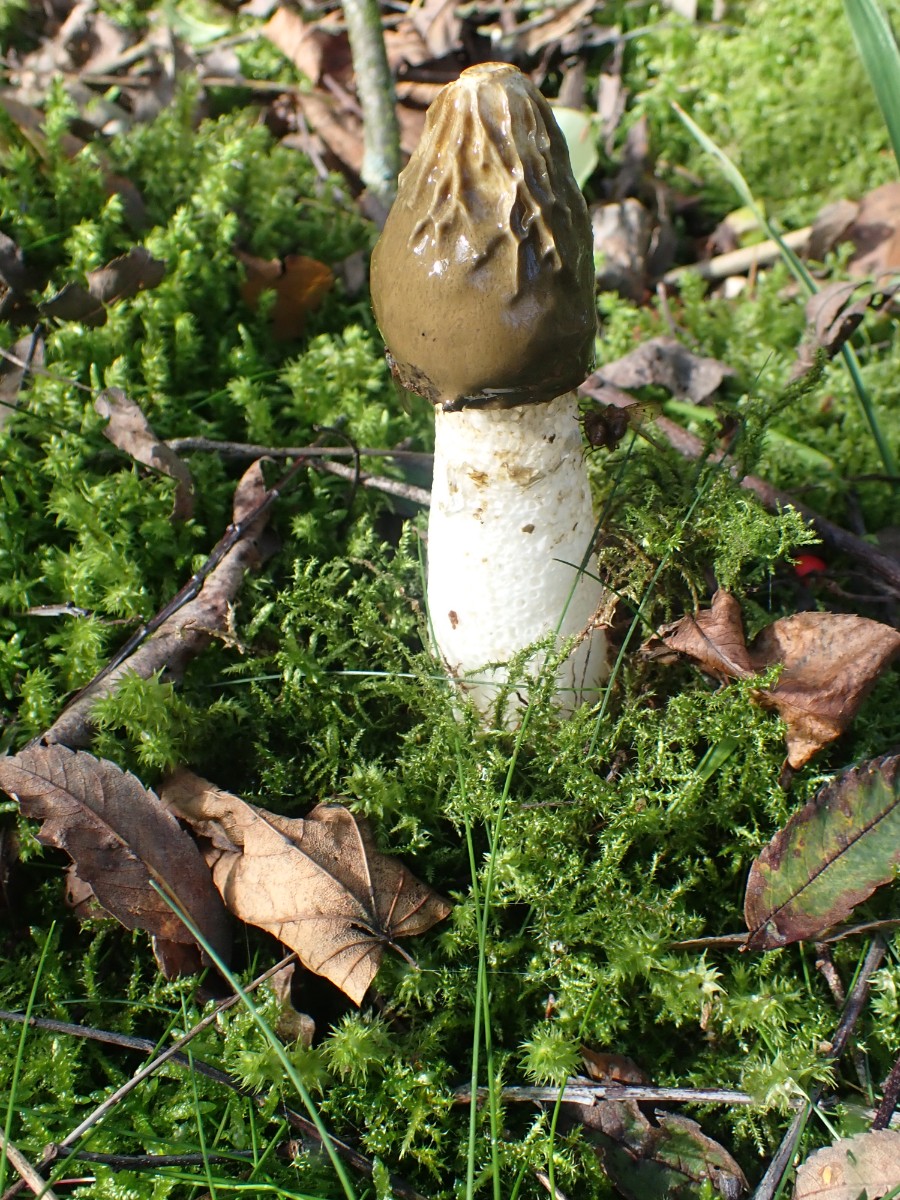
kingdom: Fungi
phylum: Basidiomycota
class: Agaricomycetes
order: Phallales
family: Phallaceae
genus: Phallus
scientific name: Phallus impudicus
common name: almindelig stinksvamp
